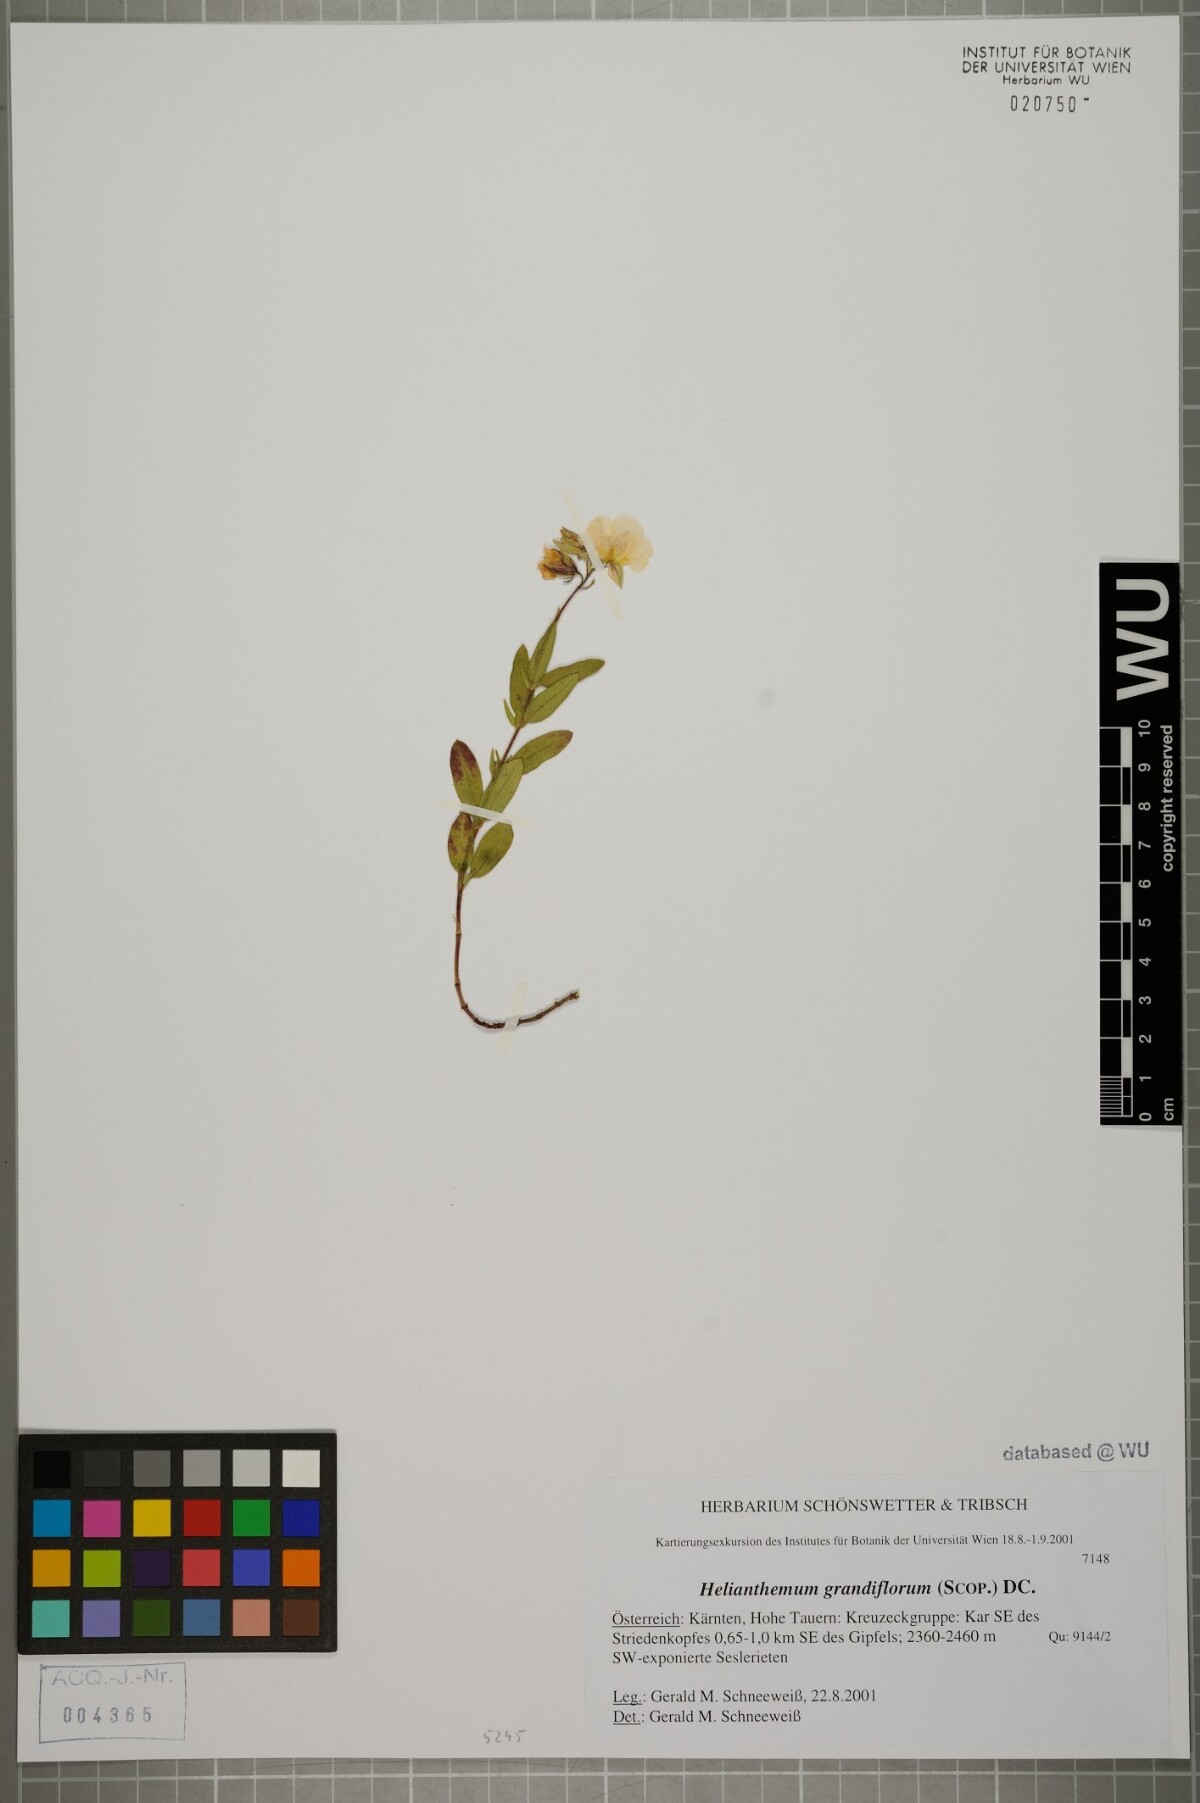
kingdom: Plantae
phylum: Tracheophyta
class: Magnoliopsida
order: Malvales
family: Cistaceae
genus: Helianthemum
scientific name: Helianthemum nummularium
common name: Common rock-rose
